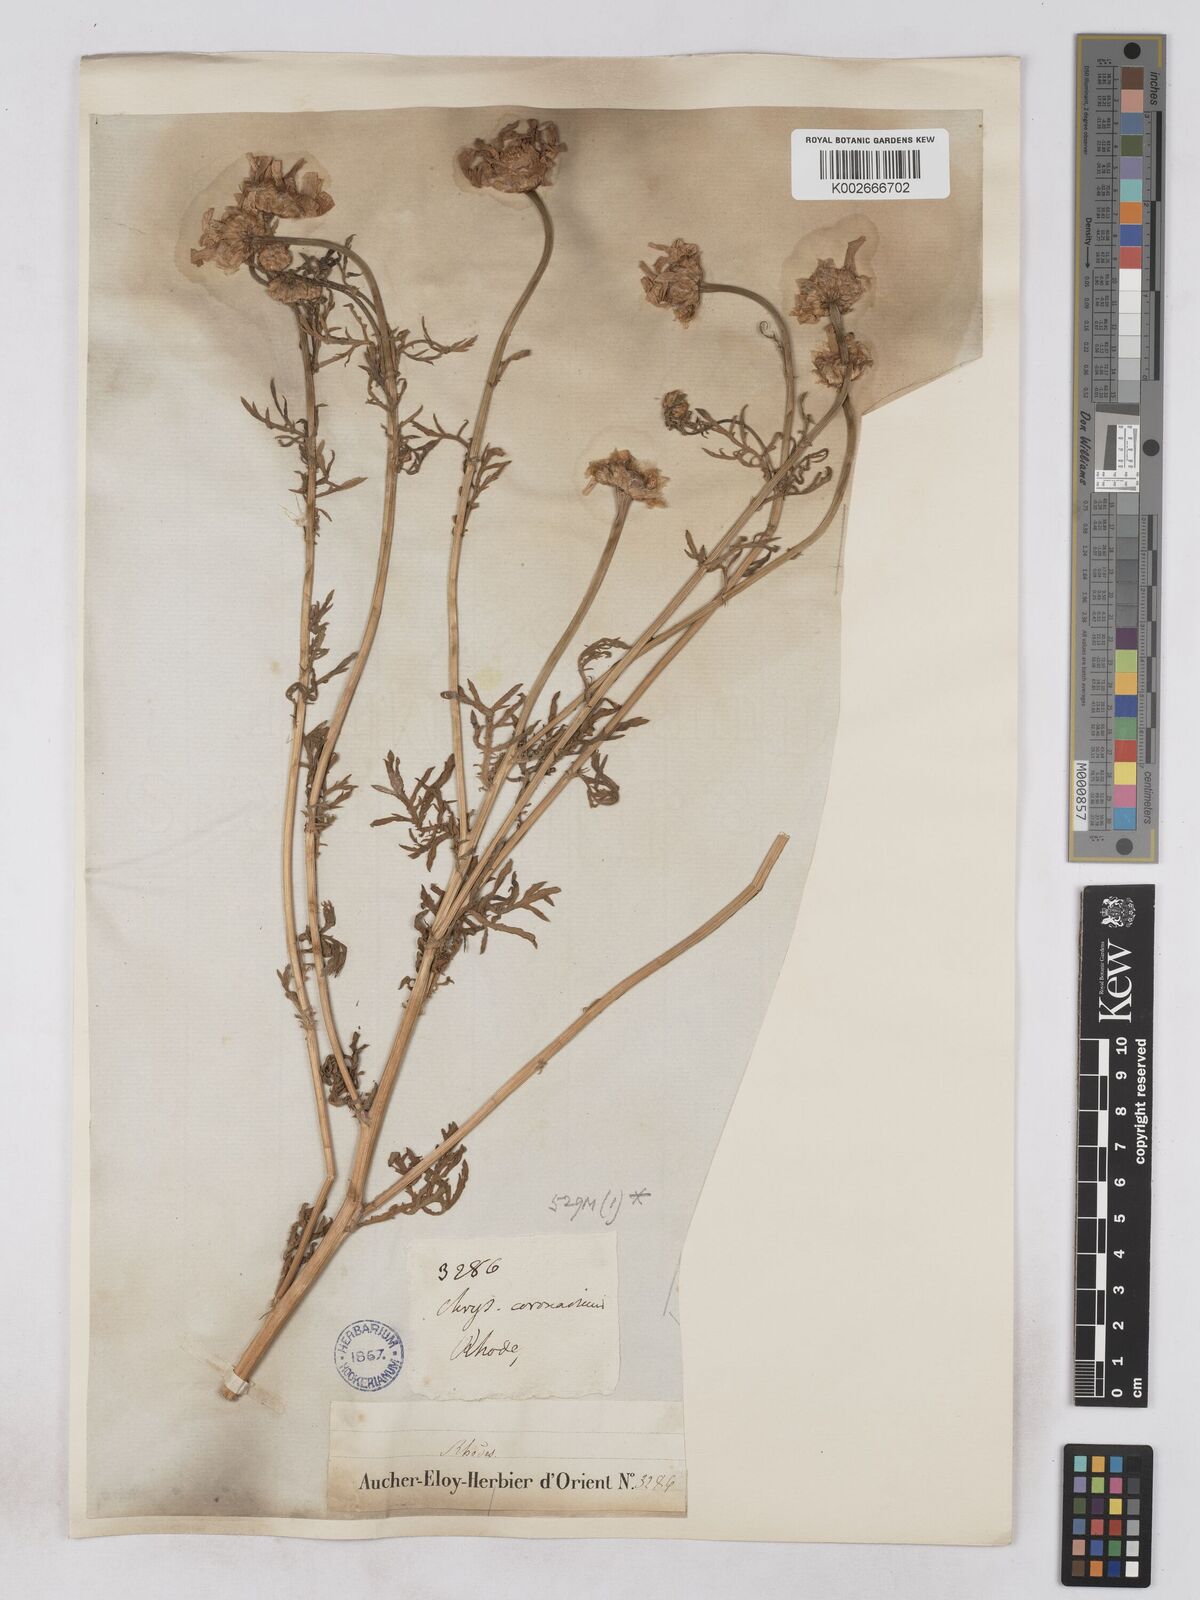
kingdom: Plantae
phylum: Tracheophyta
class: Magnoliopsida
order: Asterales
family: Asteraceae
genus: Glebionis
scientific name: Glebionis coronaria
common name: Crowndaisy
